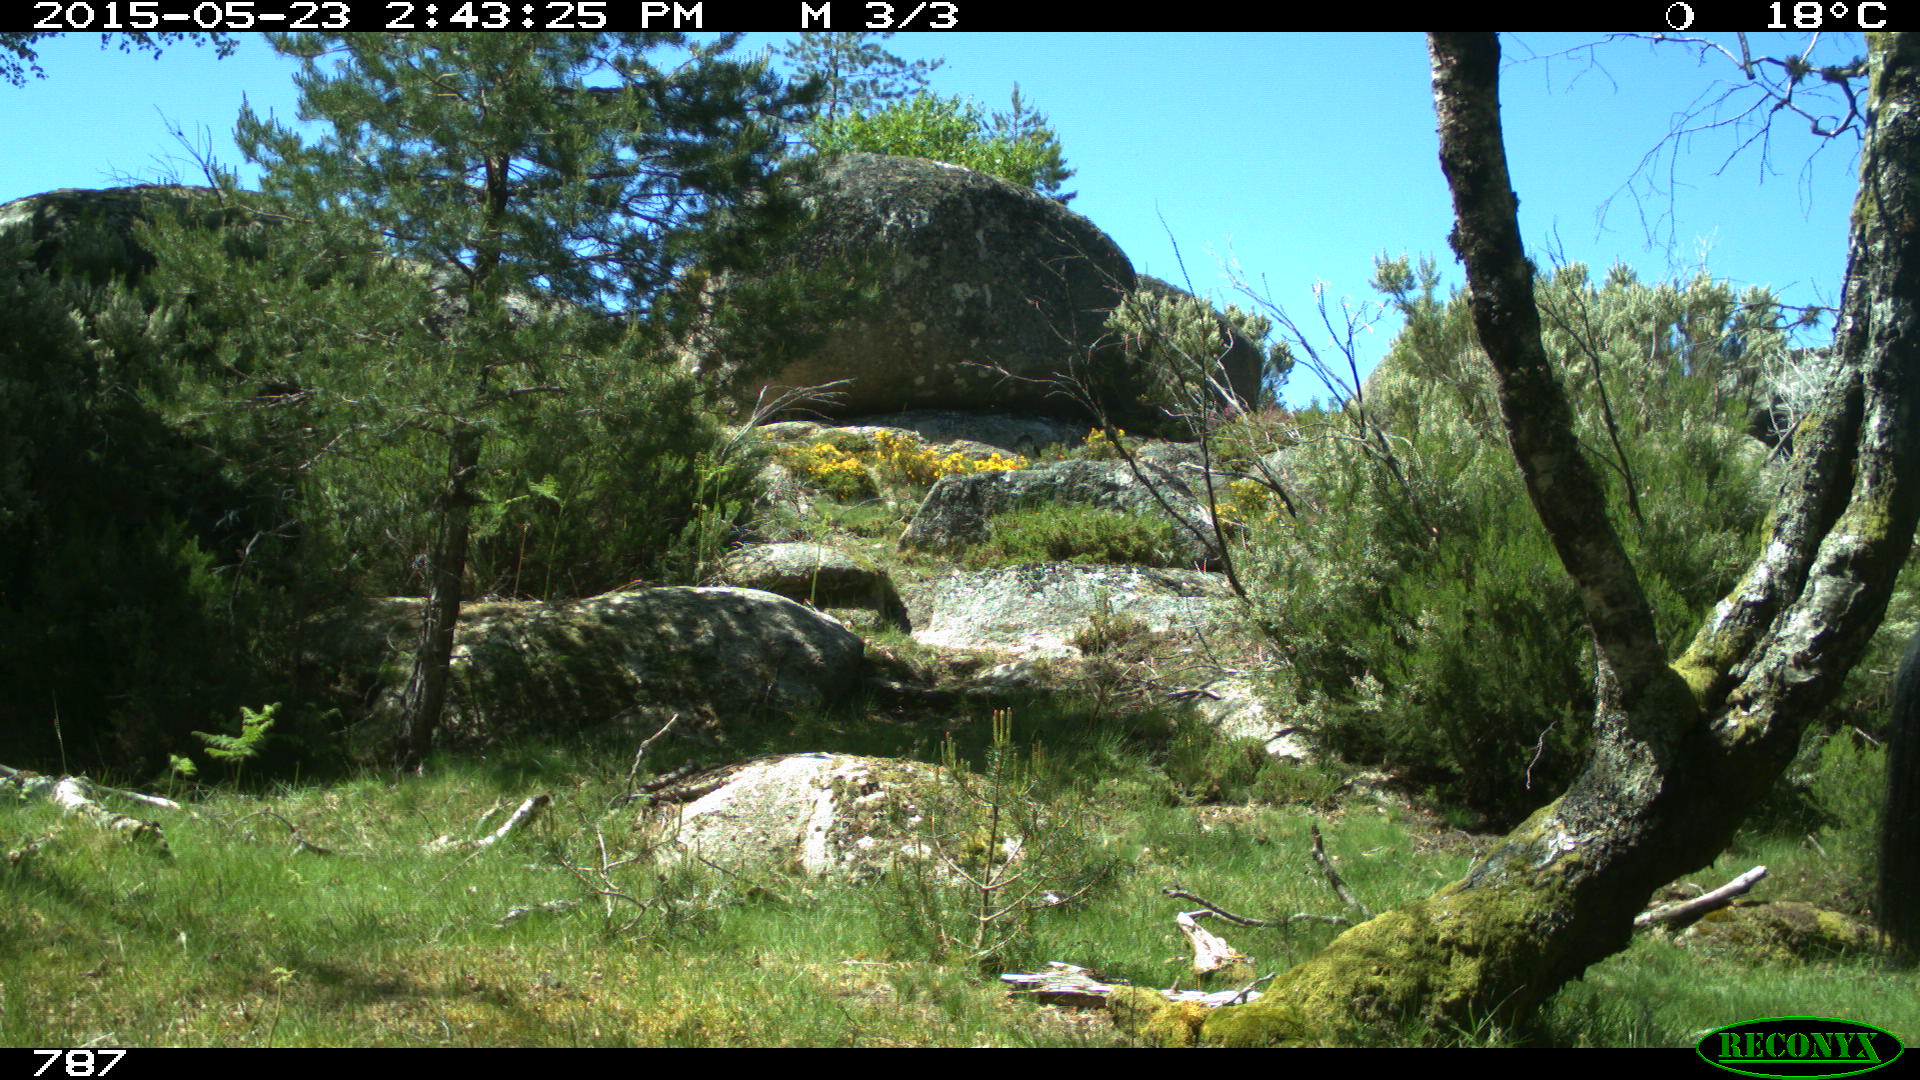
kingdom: Animalia
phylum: Chordata
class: Mammalia
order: Perissodactyla
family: Equidae
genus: Equus
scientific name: Equus caballus
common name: Horse
